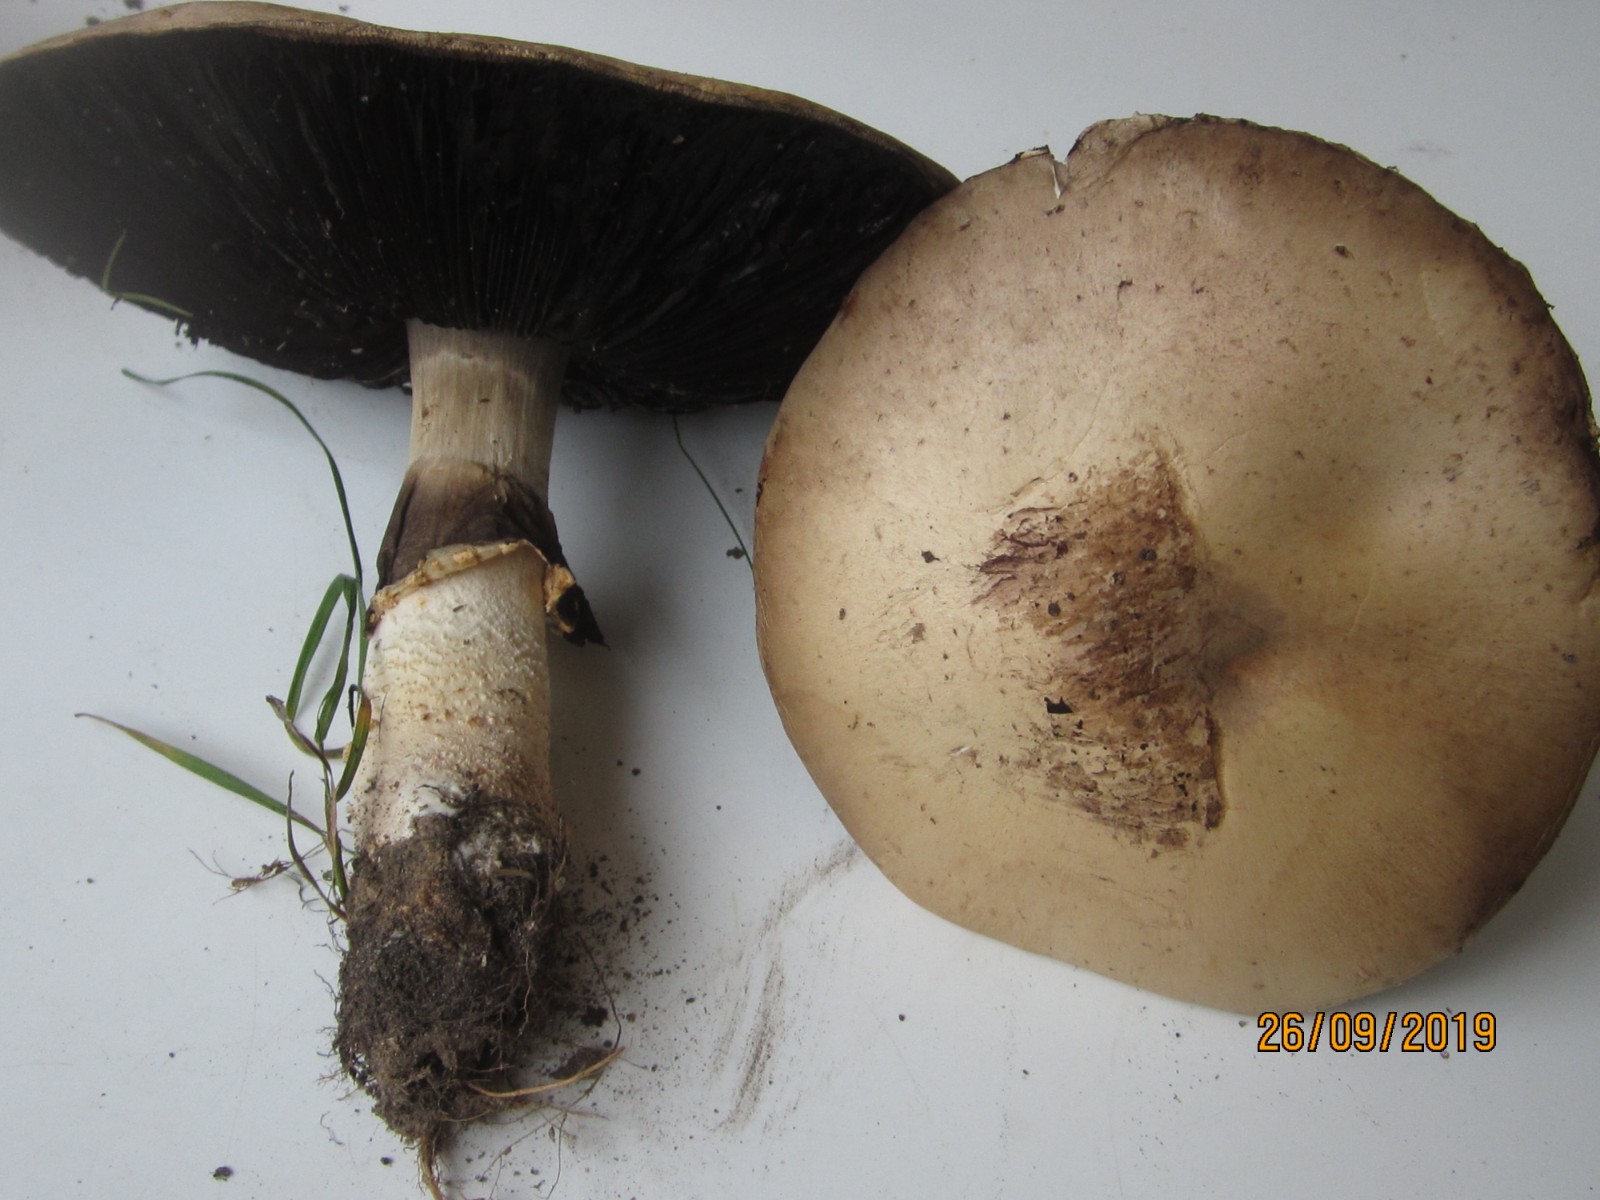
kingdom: Fungi
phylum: Basidiomycota
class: Agaricomycetes
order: Agaricales
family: Agaricaceae
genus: Agaricus
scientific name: Agaricus arvensis
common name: ager-champignon
